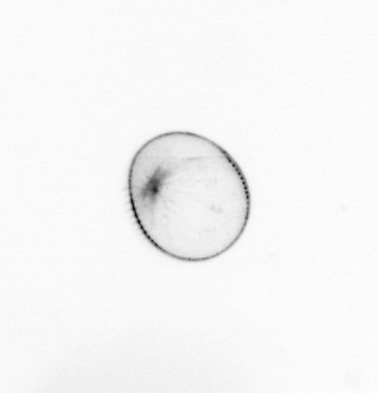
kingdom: Chromista
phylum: Myzozoa
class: Dinophyceae
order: Noctilucales
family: Noctilucaceae
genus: Noctiluca
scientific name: Noctiluca scintillans
